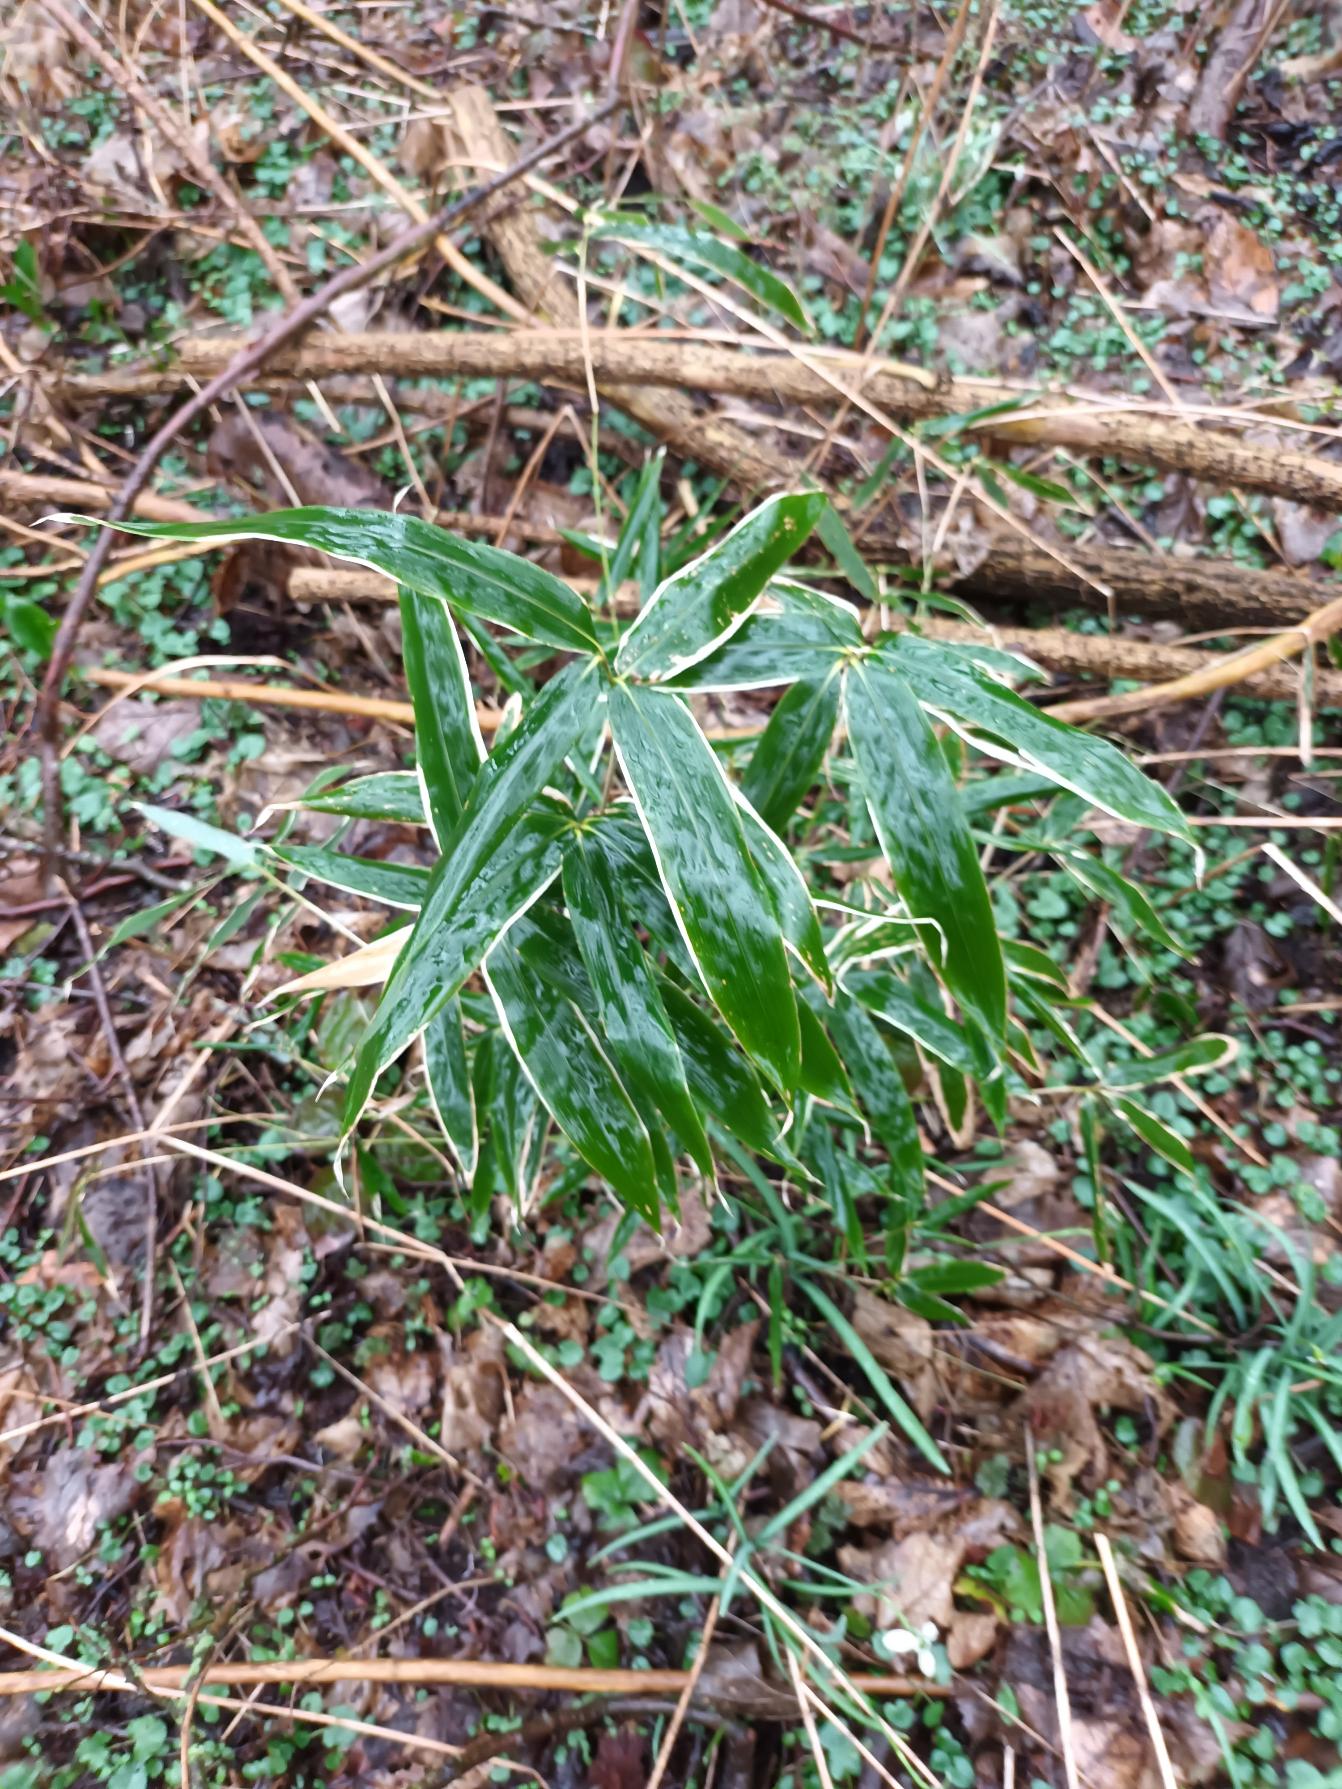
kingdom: Plantae
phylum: Tracheophyta
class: Liliopsida
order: Poales
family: Poaceae
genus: Sasa
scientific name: Sasa veitchii
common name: Hvidrandet bambus
